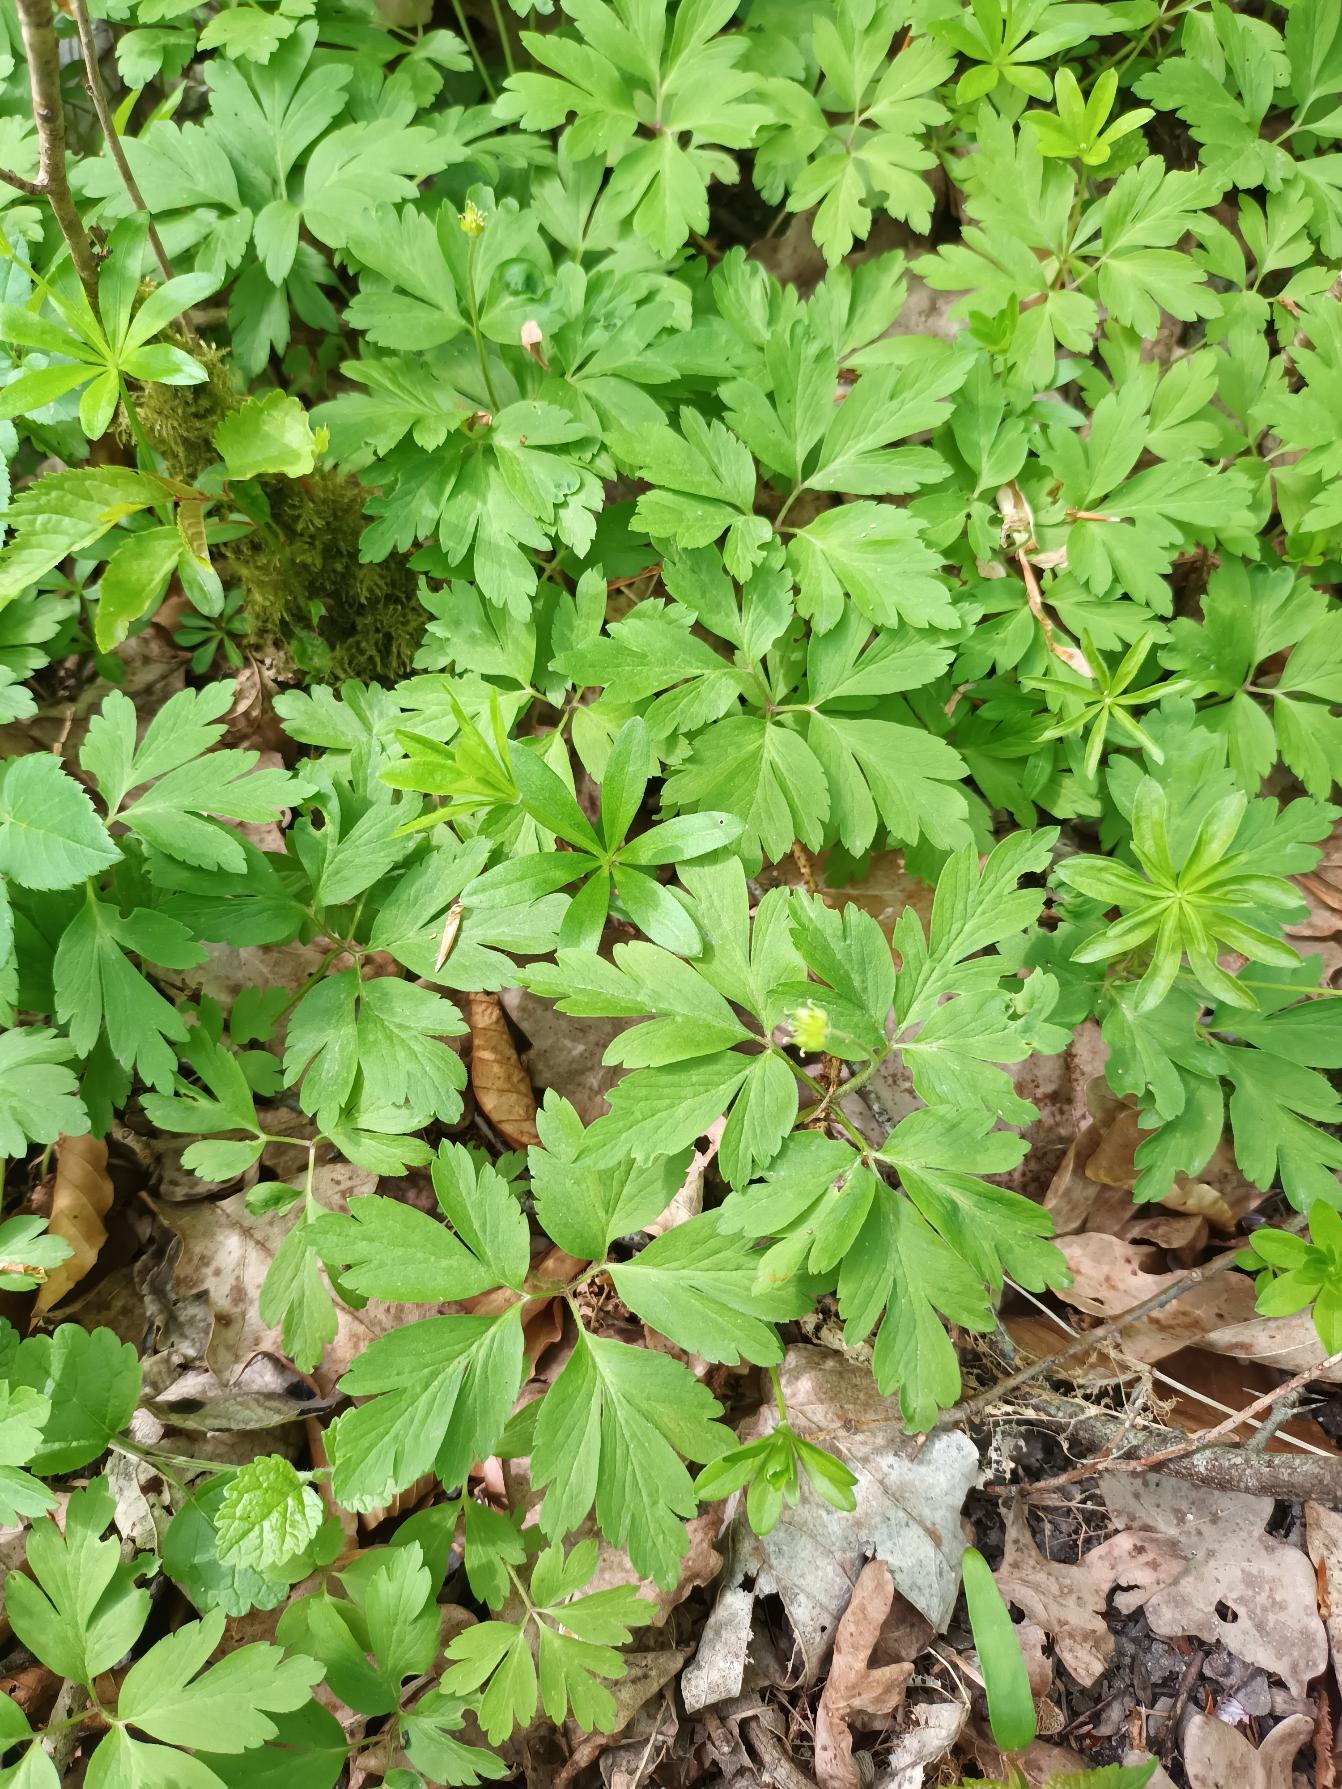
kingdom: Plantae
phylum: Tracheophyta
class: Magnoliopsida
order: Ranunculales
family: Ranunculaceae
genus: Anemone
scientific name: Anemone nemorosa
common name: Hvid anemone
